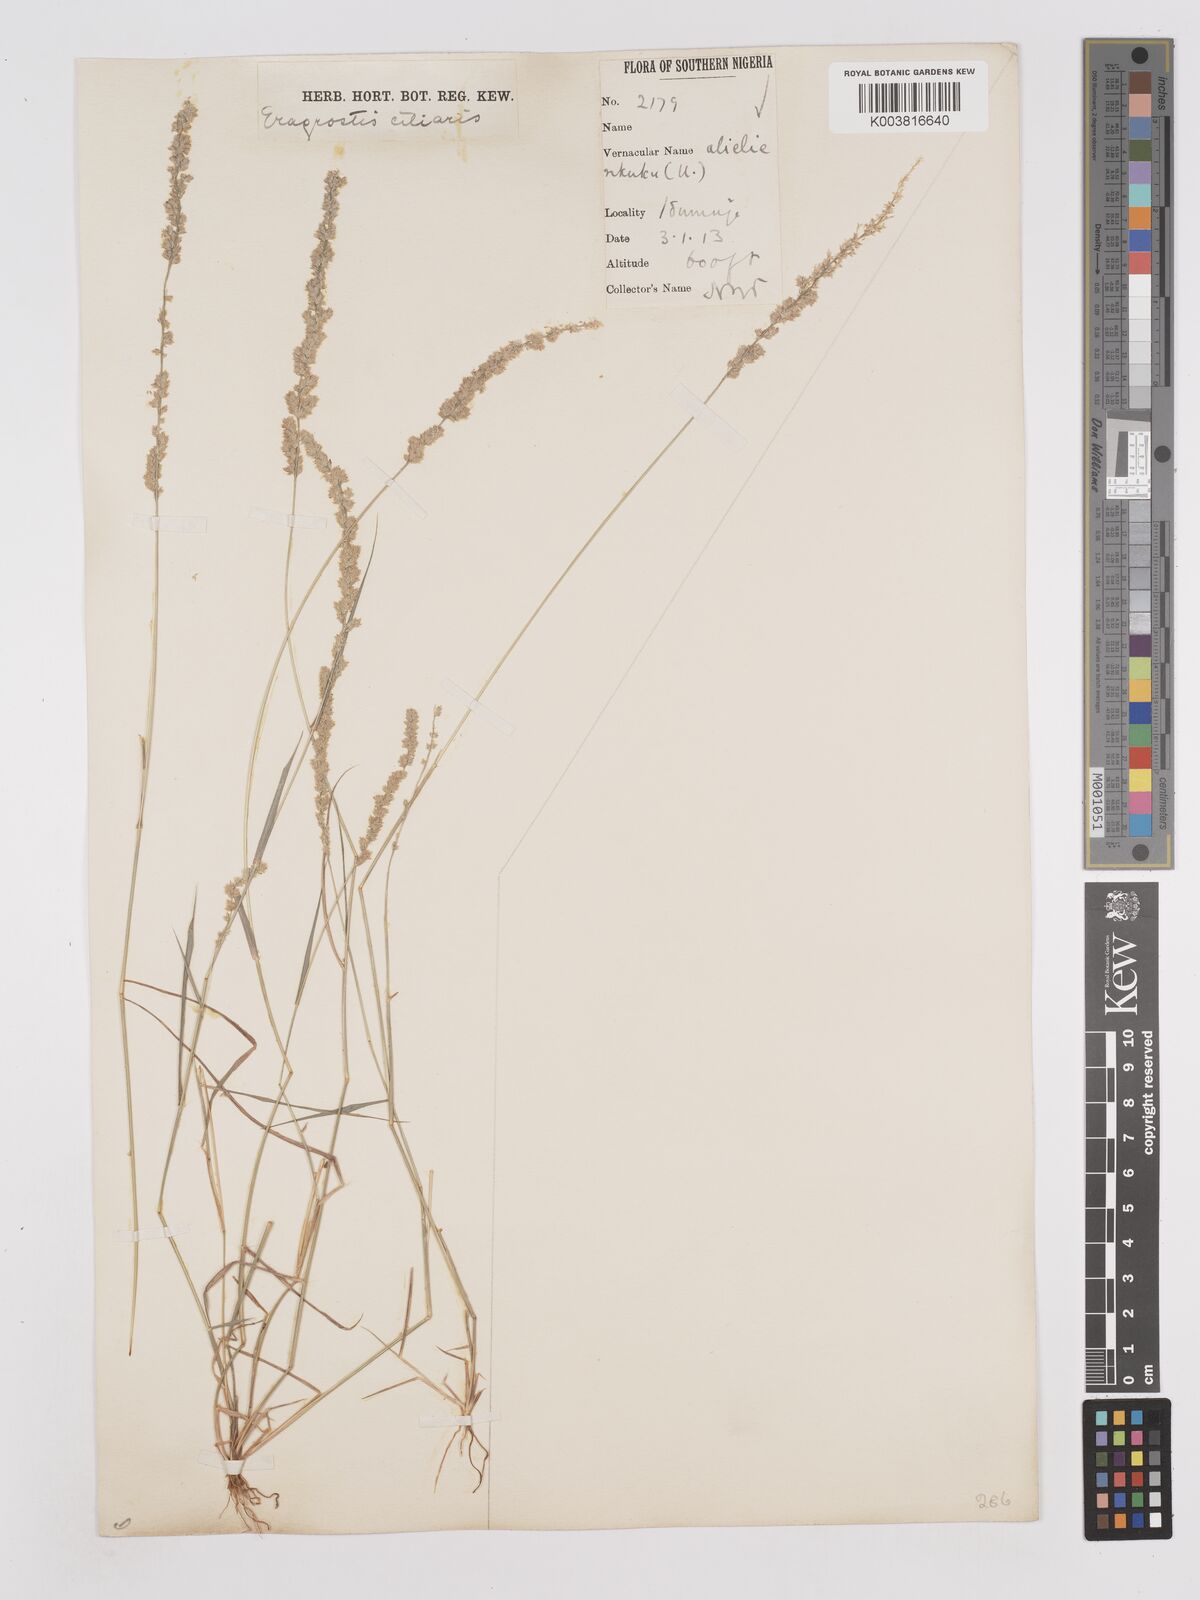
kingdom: Plantae
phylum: Tracheophyta
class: Liliopsida
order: Poales
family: Poaceae
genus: Eragrostis
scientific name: Eragrostis ciliaris
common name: Gophertail lovegrass
